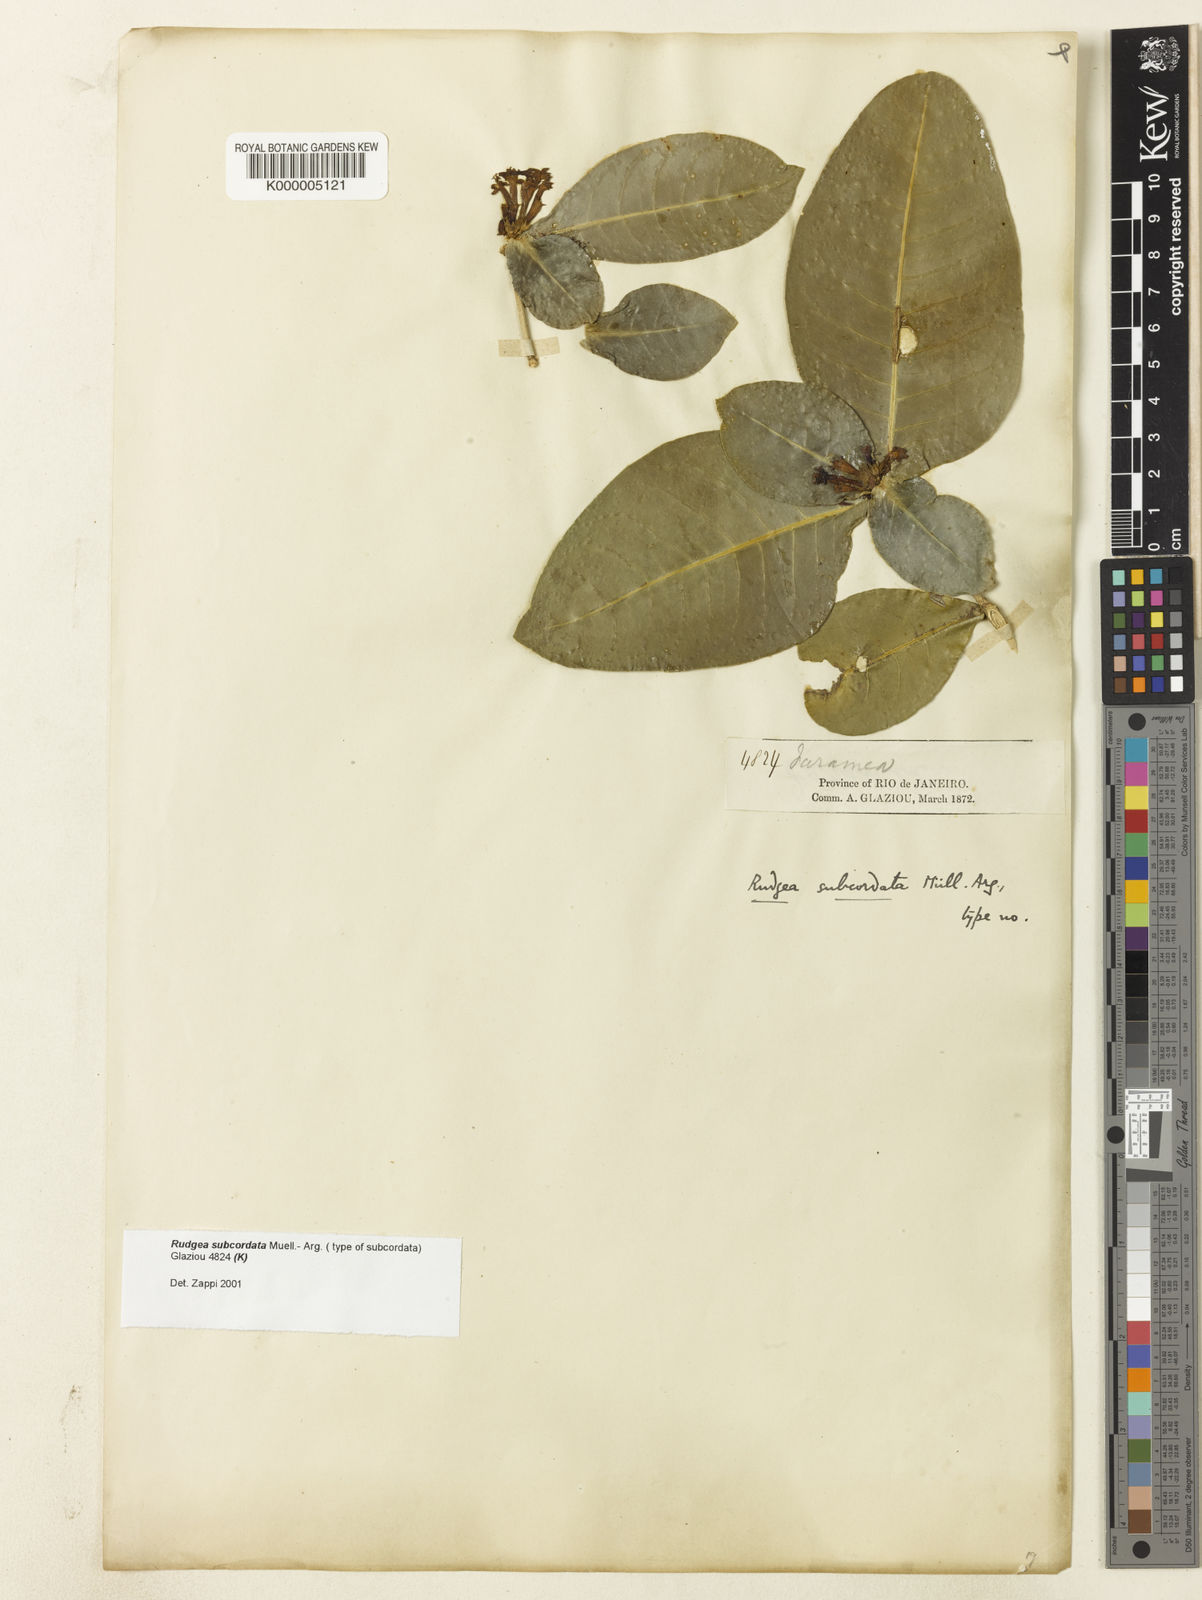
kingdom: Plantae
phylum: Tracheophyta
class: Magnoliopsida
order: Gentianales
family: Rubiaceae
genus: Rudgea
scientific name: Rudgea
